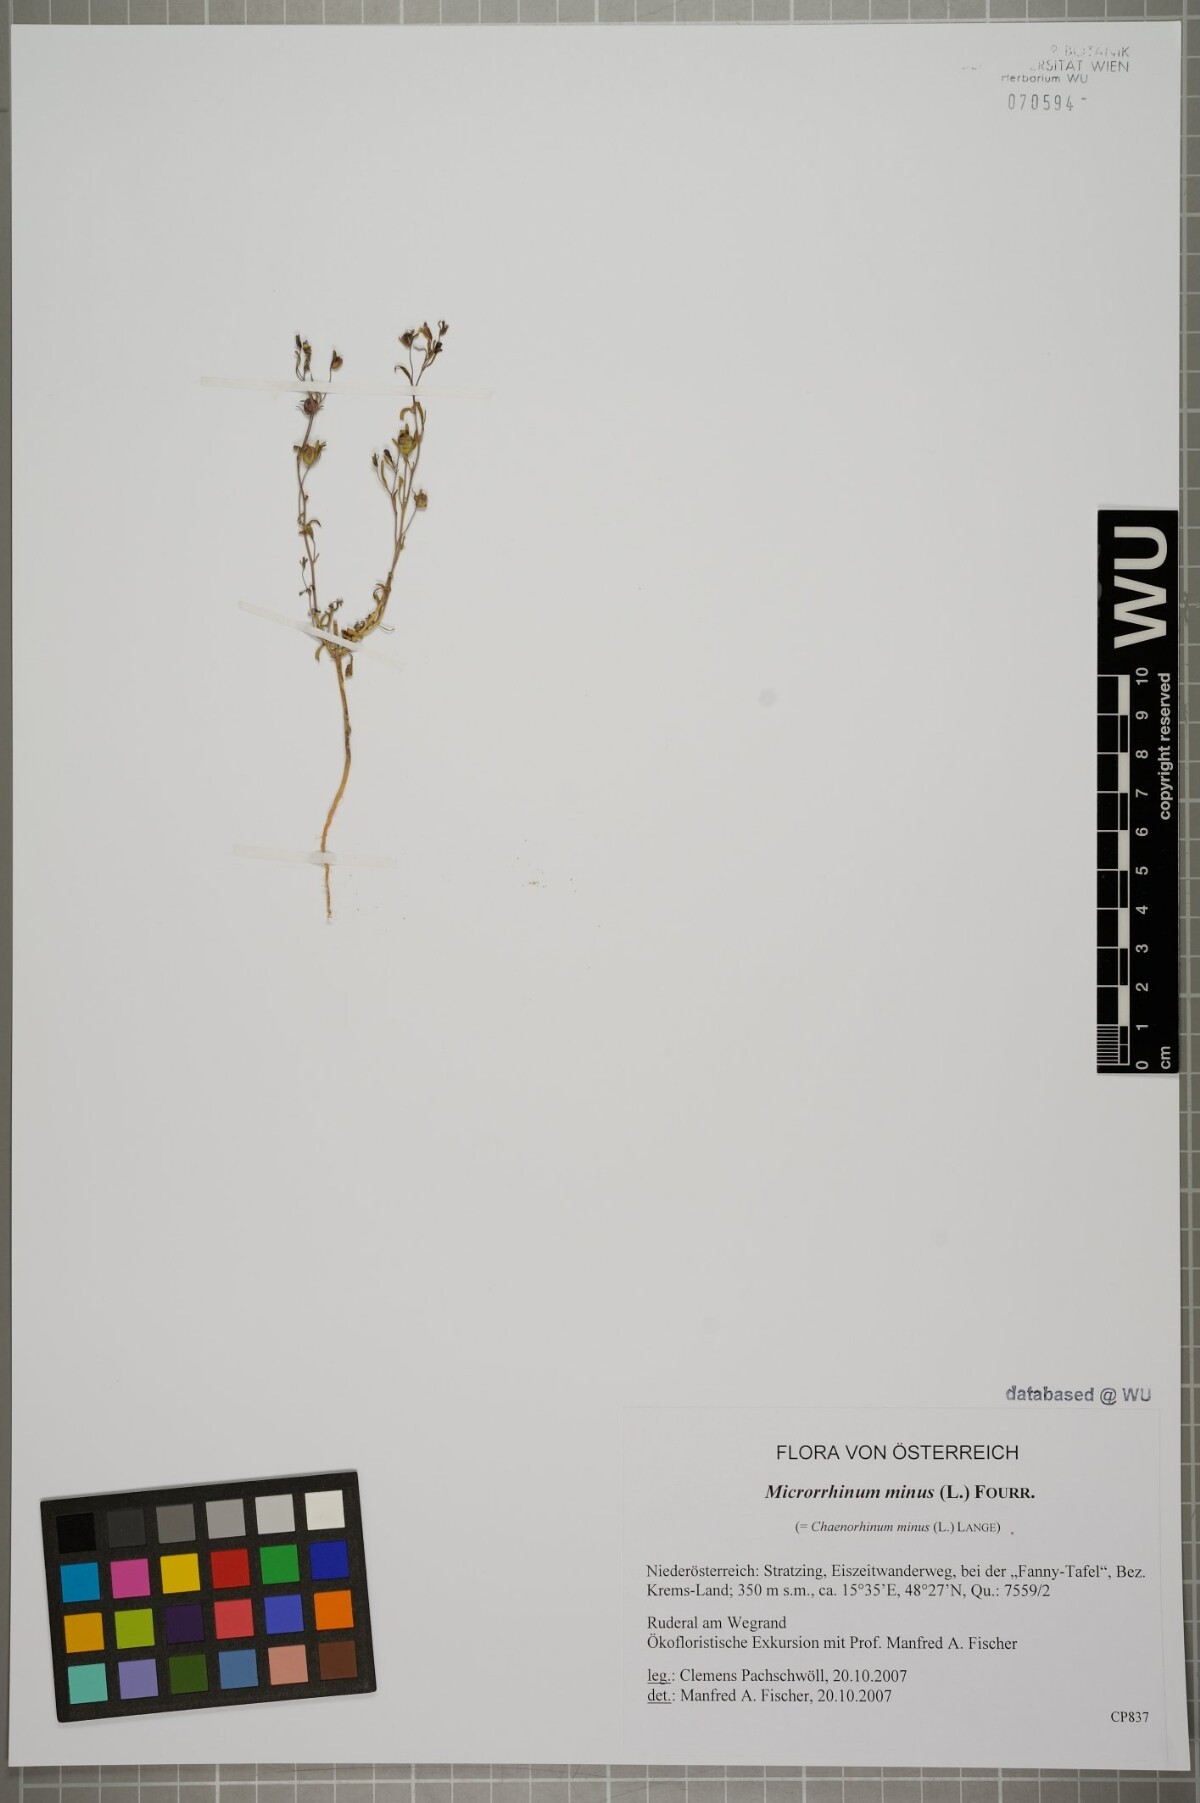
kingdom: Plantae
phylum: Tracheophyta
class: Magnoliopsida
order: Lamiales
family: Plantaginaceae
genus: Chaenorhinum
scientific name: Chaenorhinum minus
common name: Dwarf snapdragon
